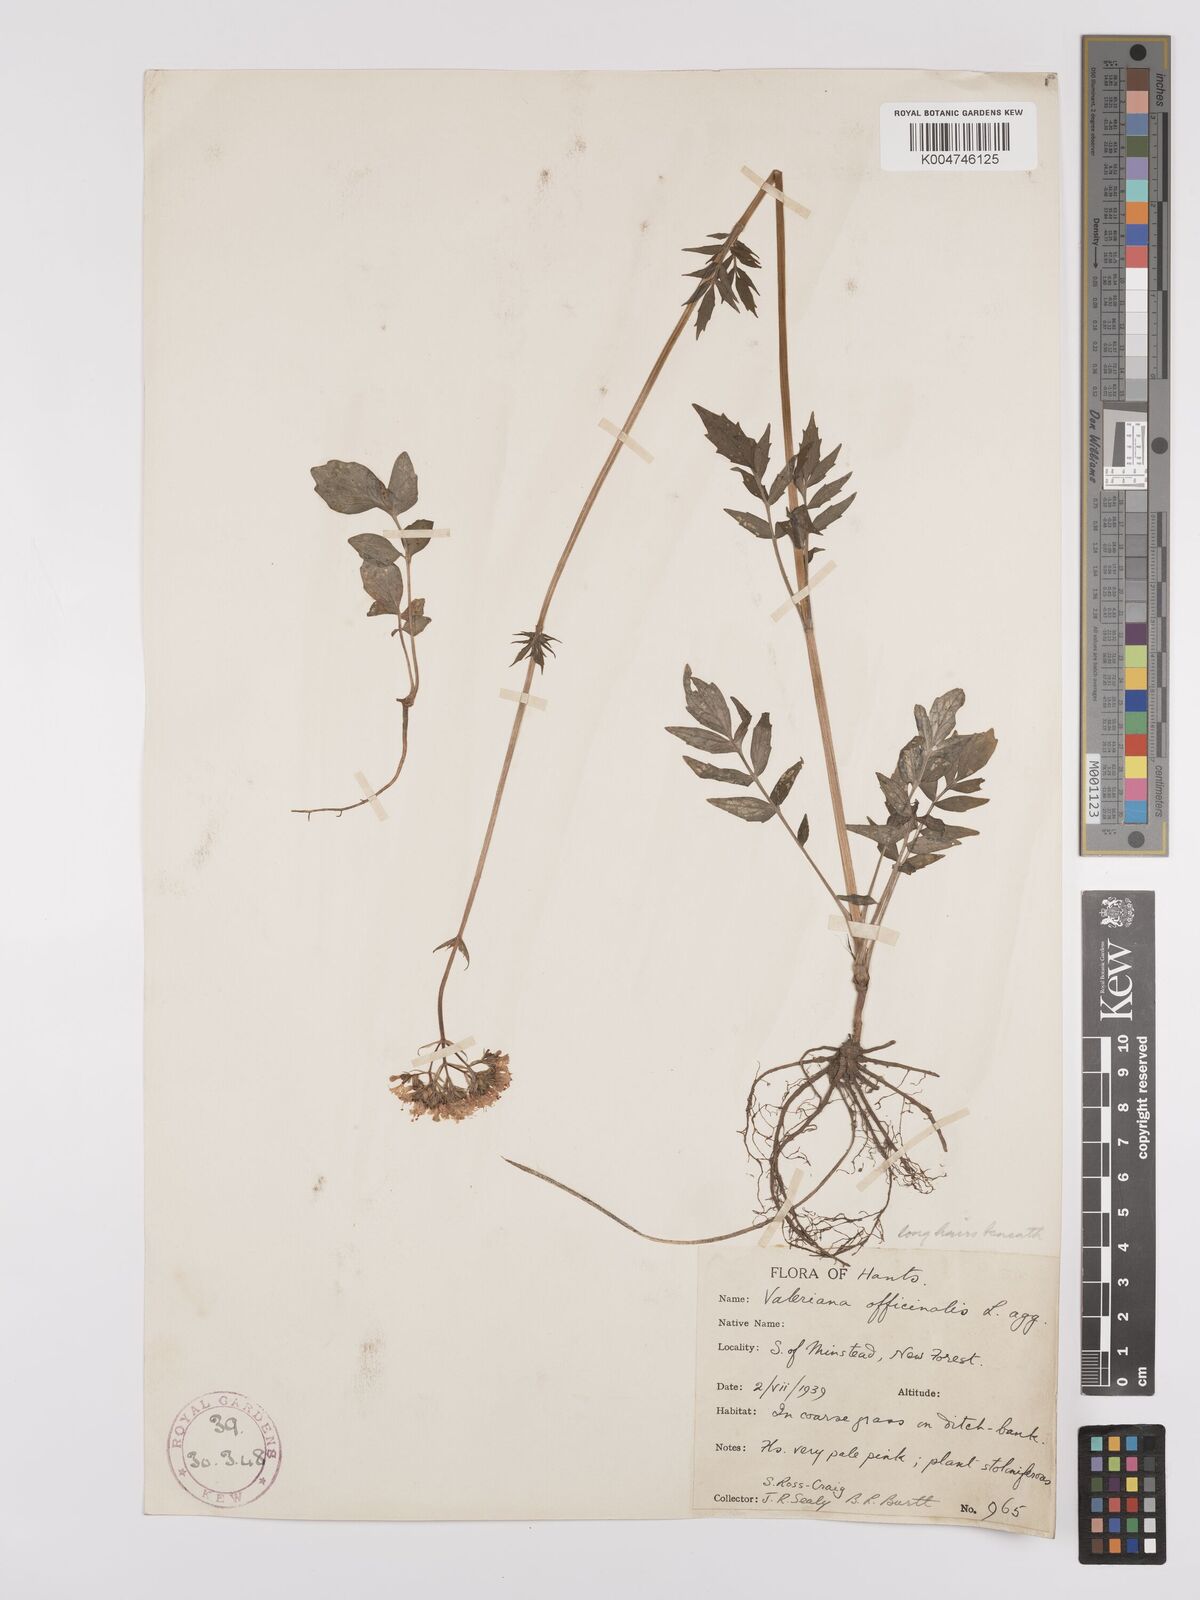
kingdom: Plantae
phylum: Tracheophyta
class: Magnoliopsida
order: Dipsacales
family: Caprifoliaceae
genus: Valeriana
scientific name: Valeriana excelsa
